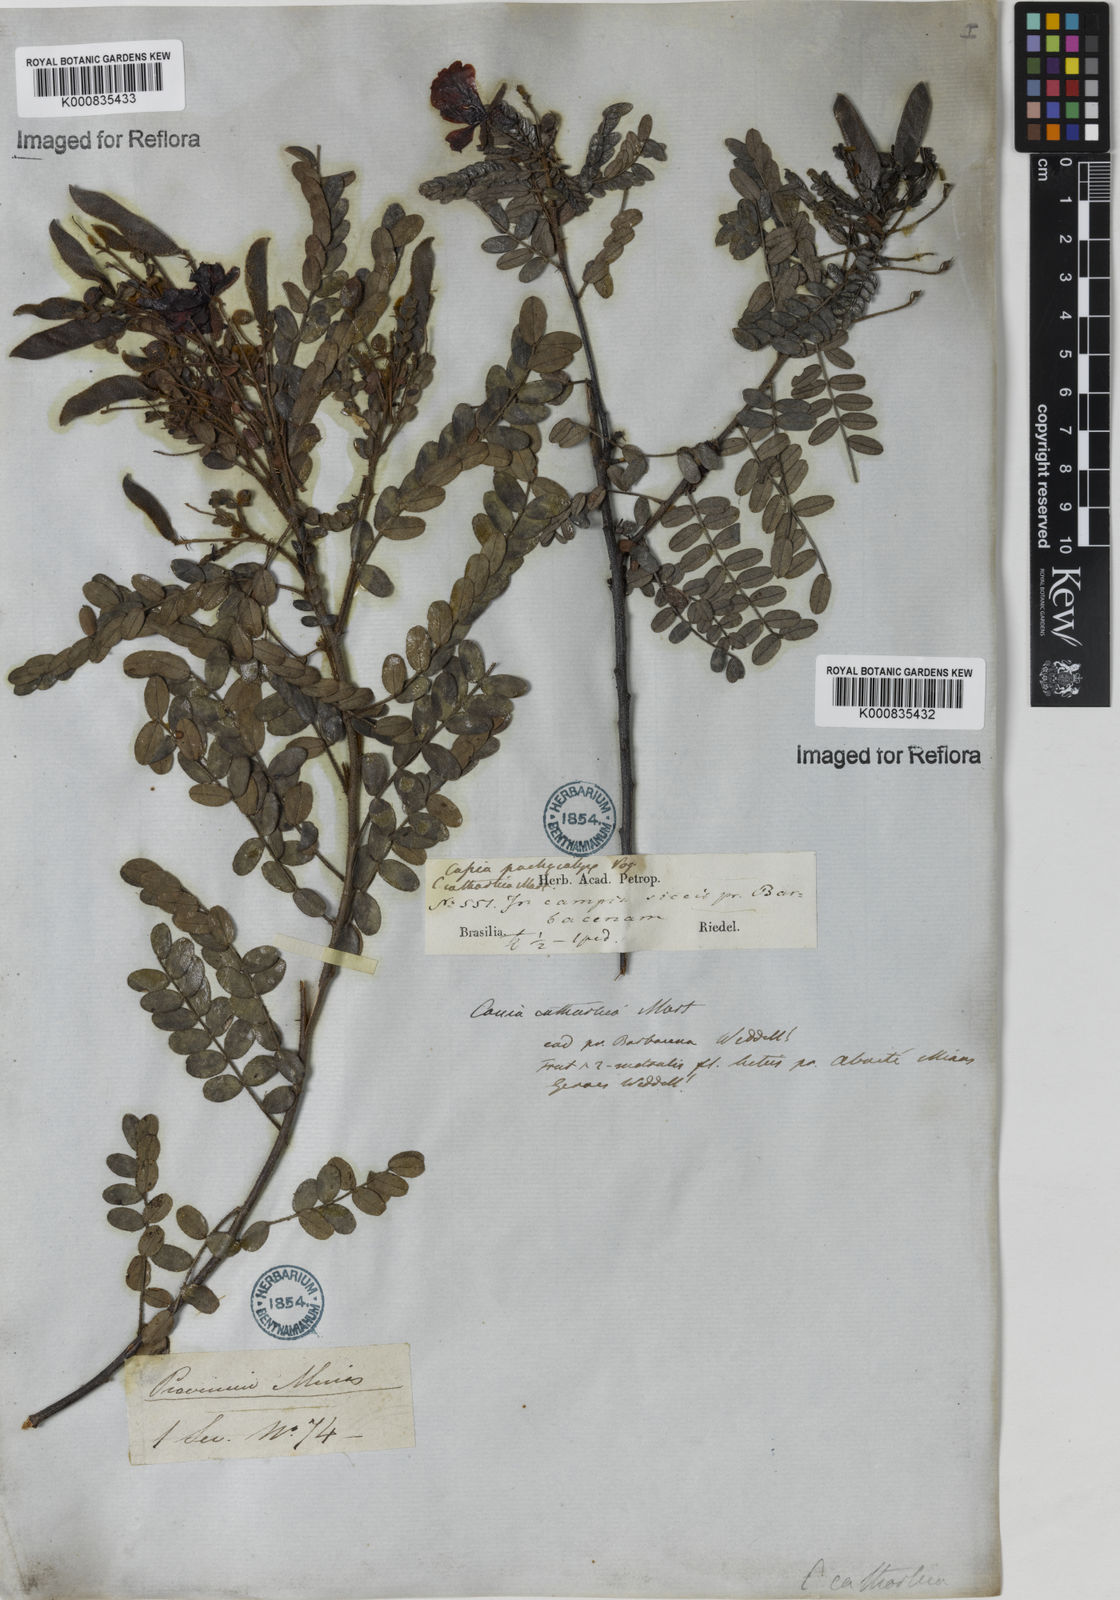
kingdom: Plantae
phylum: Tracheophyta
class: Magnoliopsida
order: Fabales
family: Fabaceae
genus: Chamaecrista
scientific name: Chamaecrista cathartica
